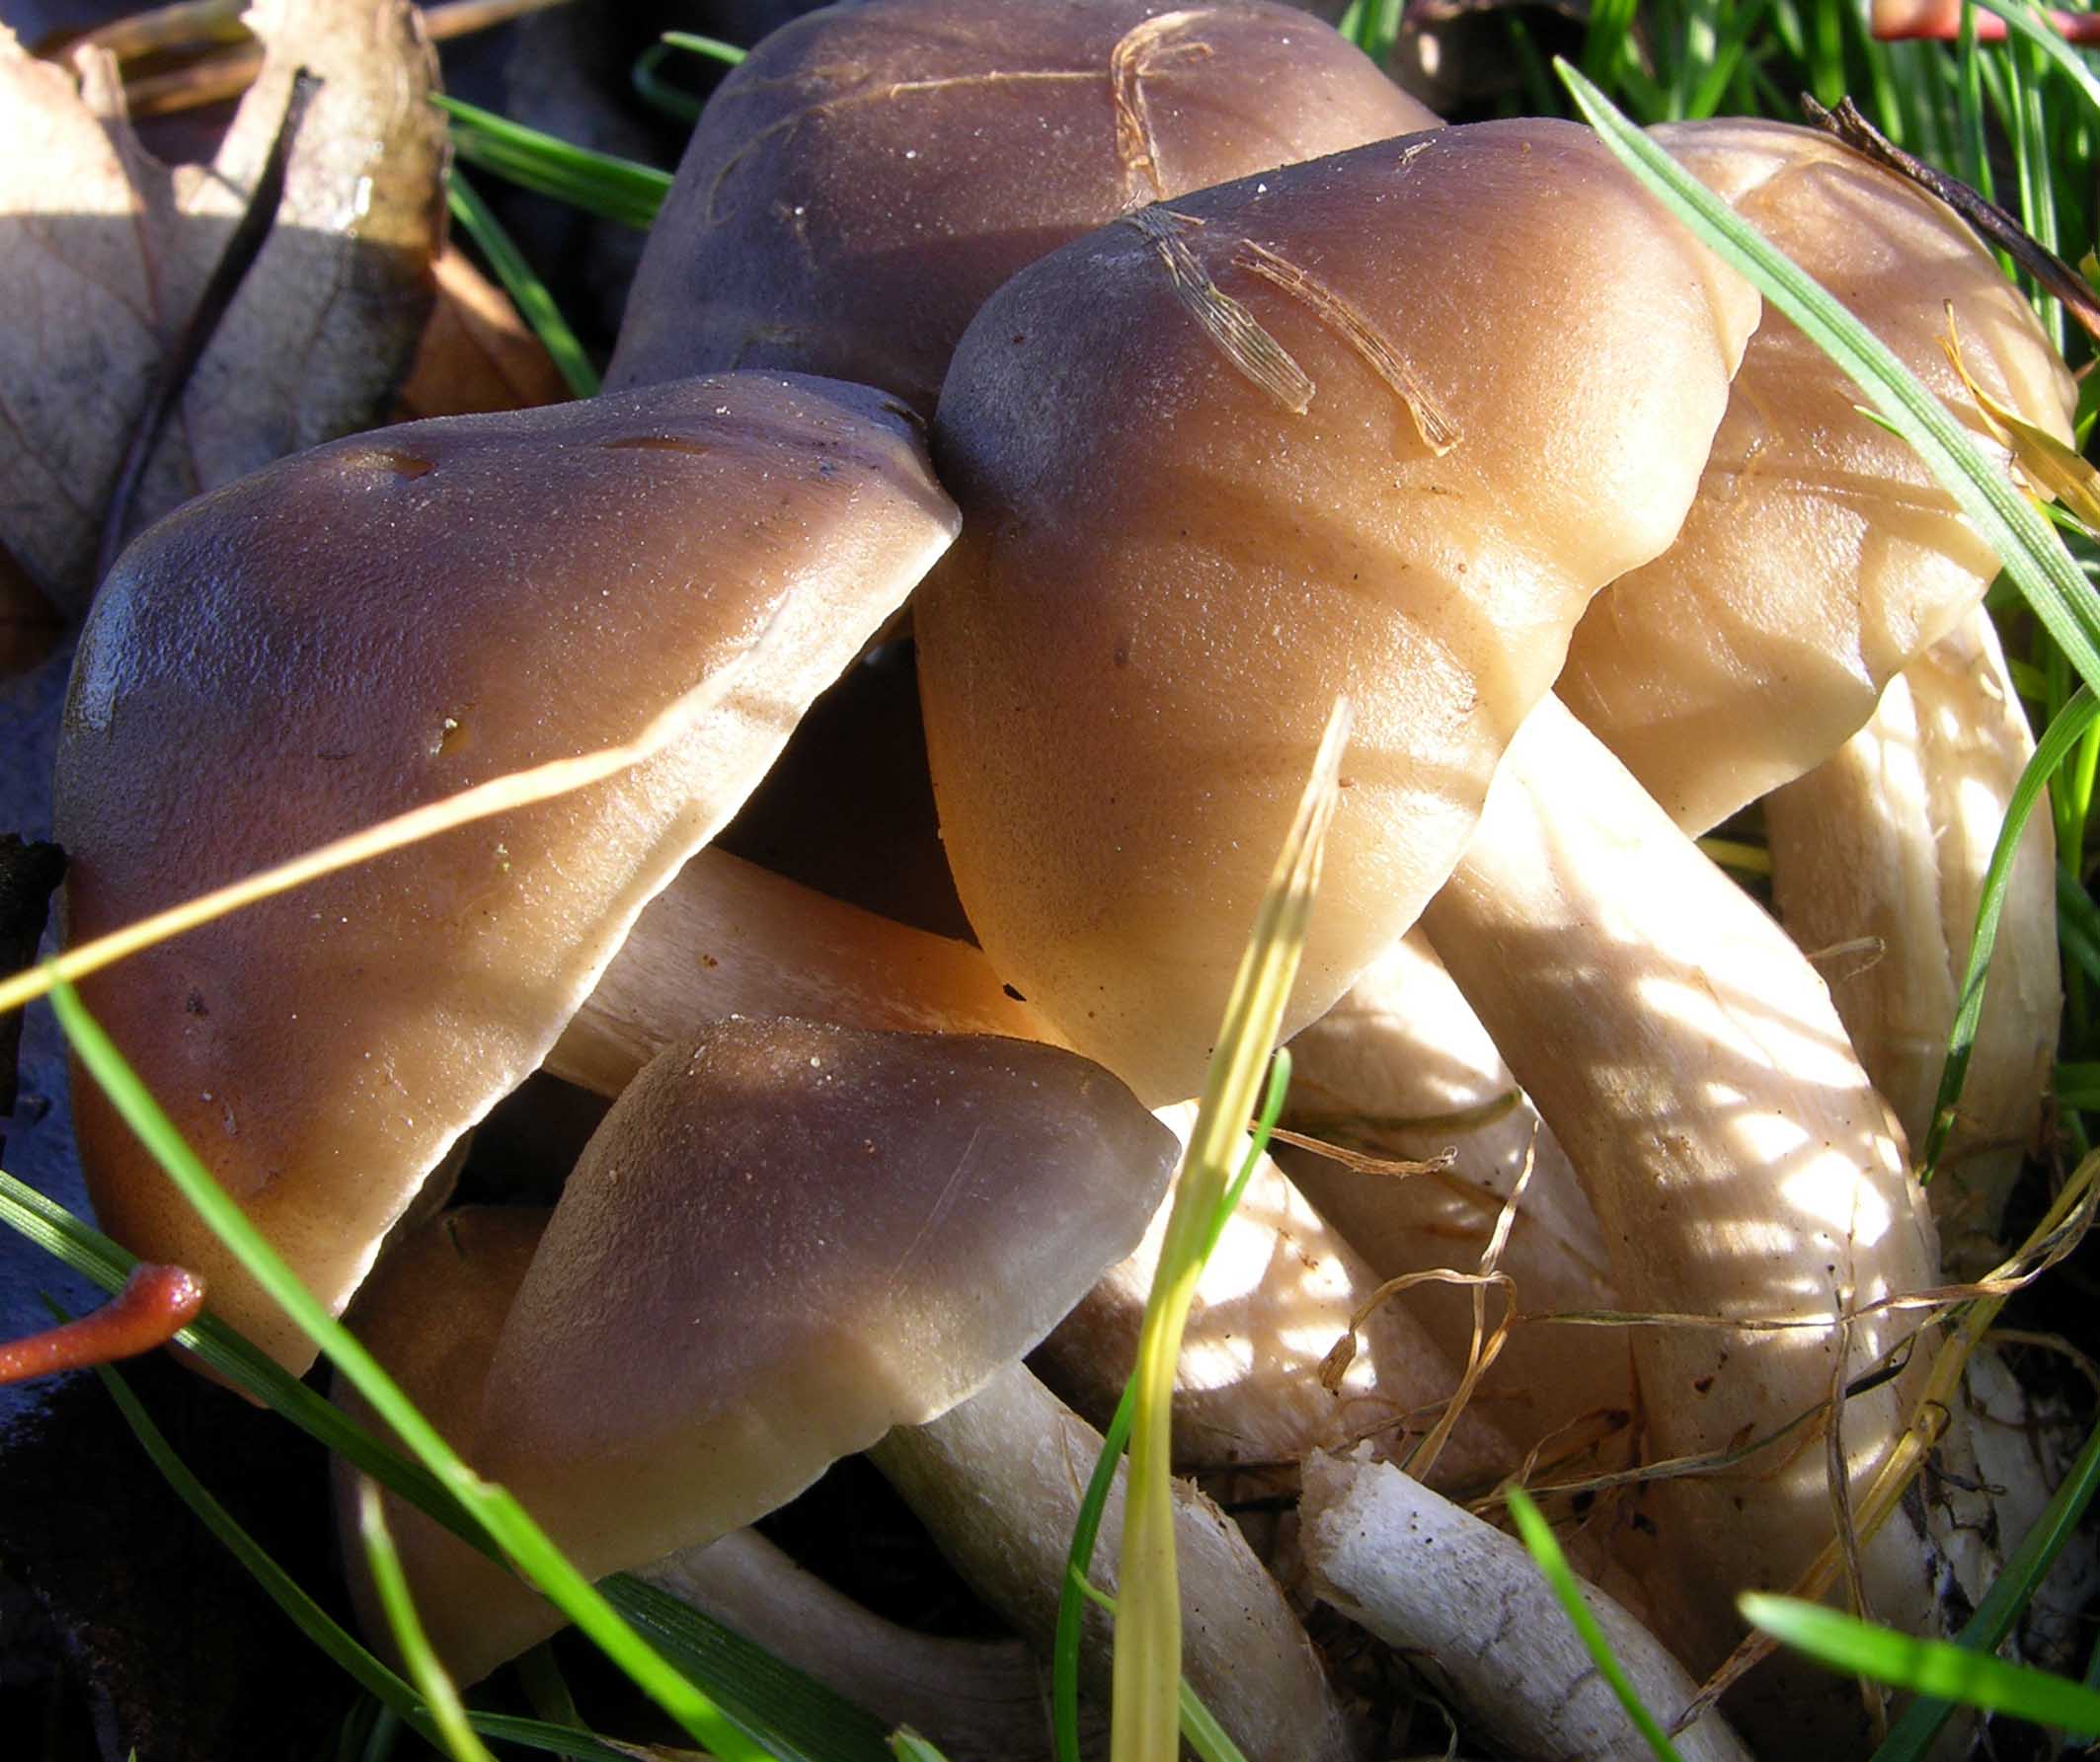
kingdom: Fungi
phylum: Basidiomycota
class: Agaricomycetes
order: Agaricales
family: Lyophyllaceae
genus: Lyophyllum
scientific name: Lyophyllum decastes
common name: røggrå gråblad
